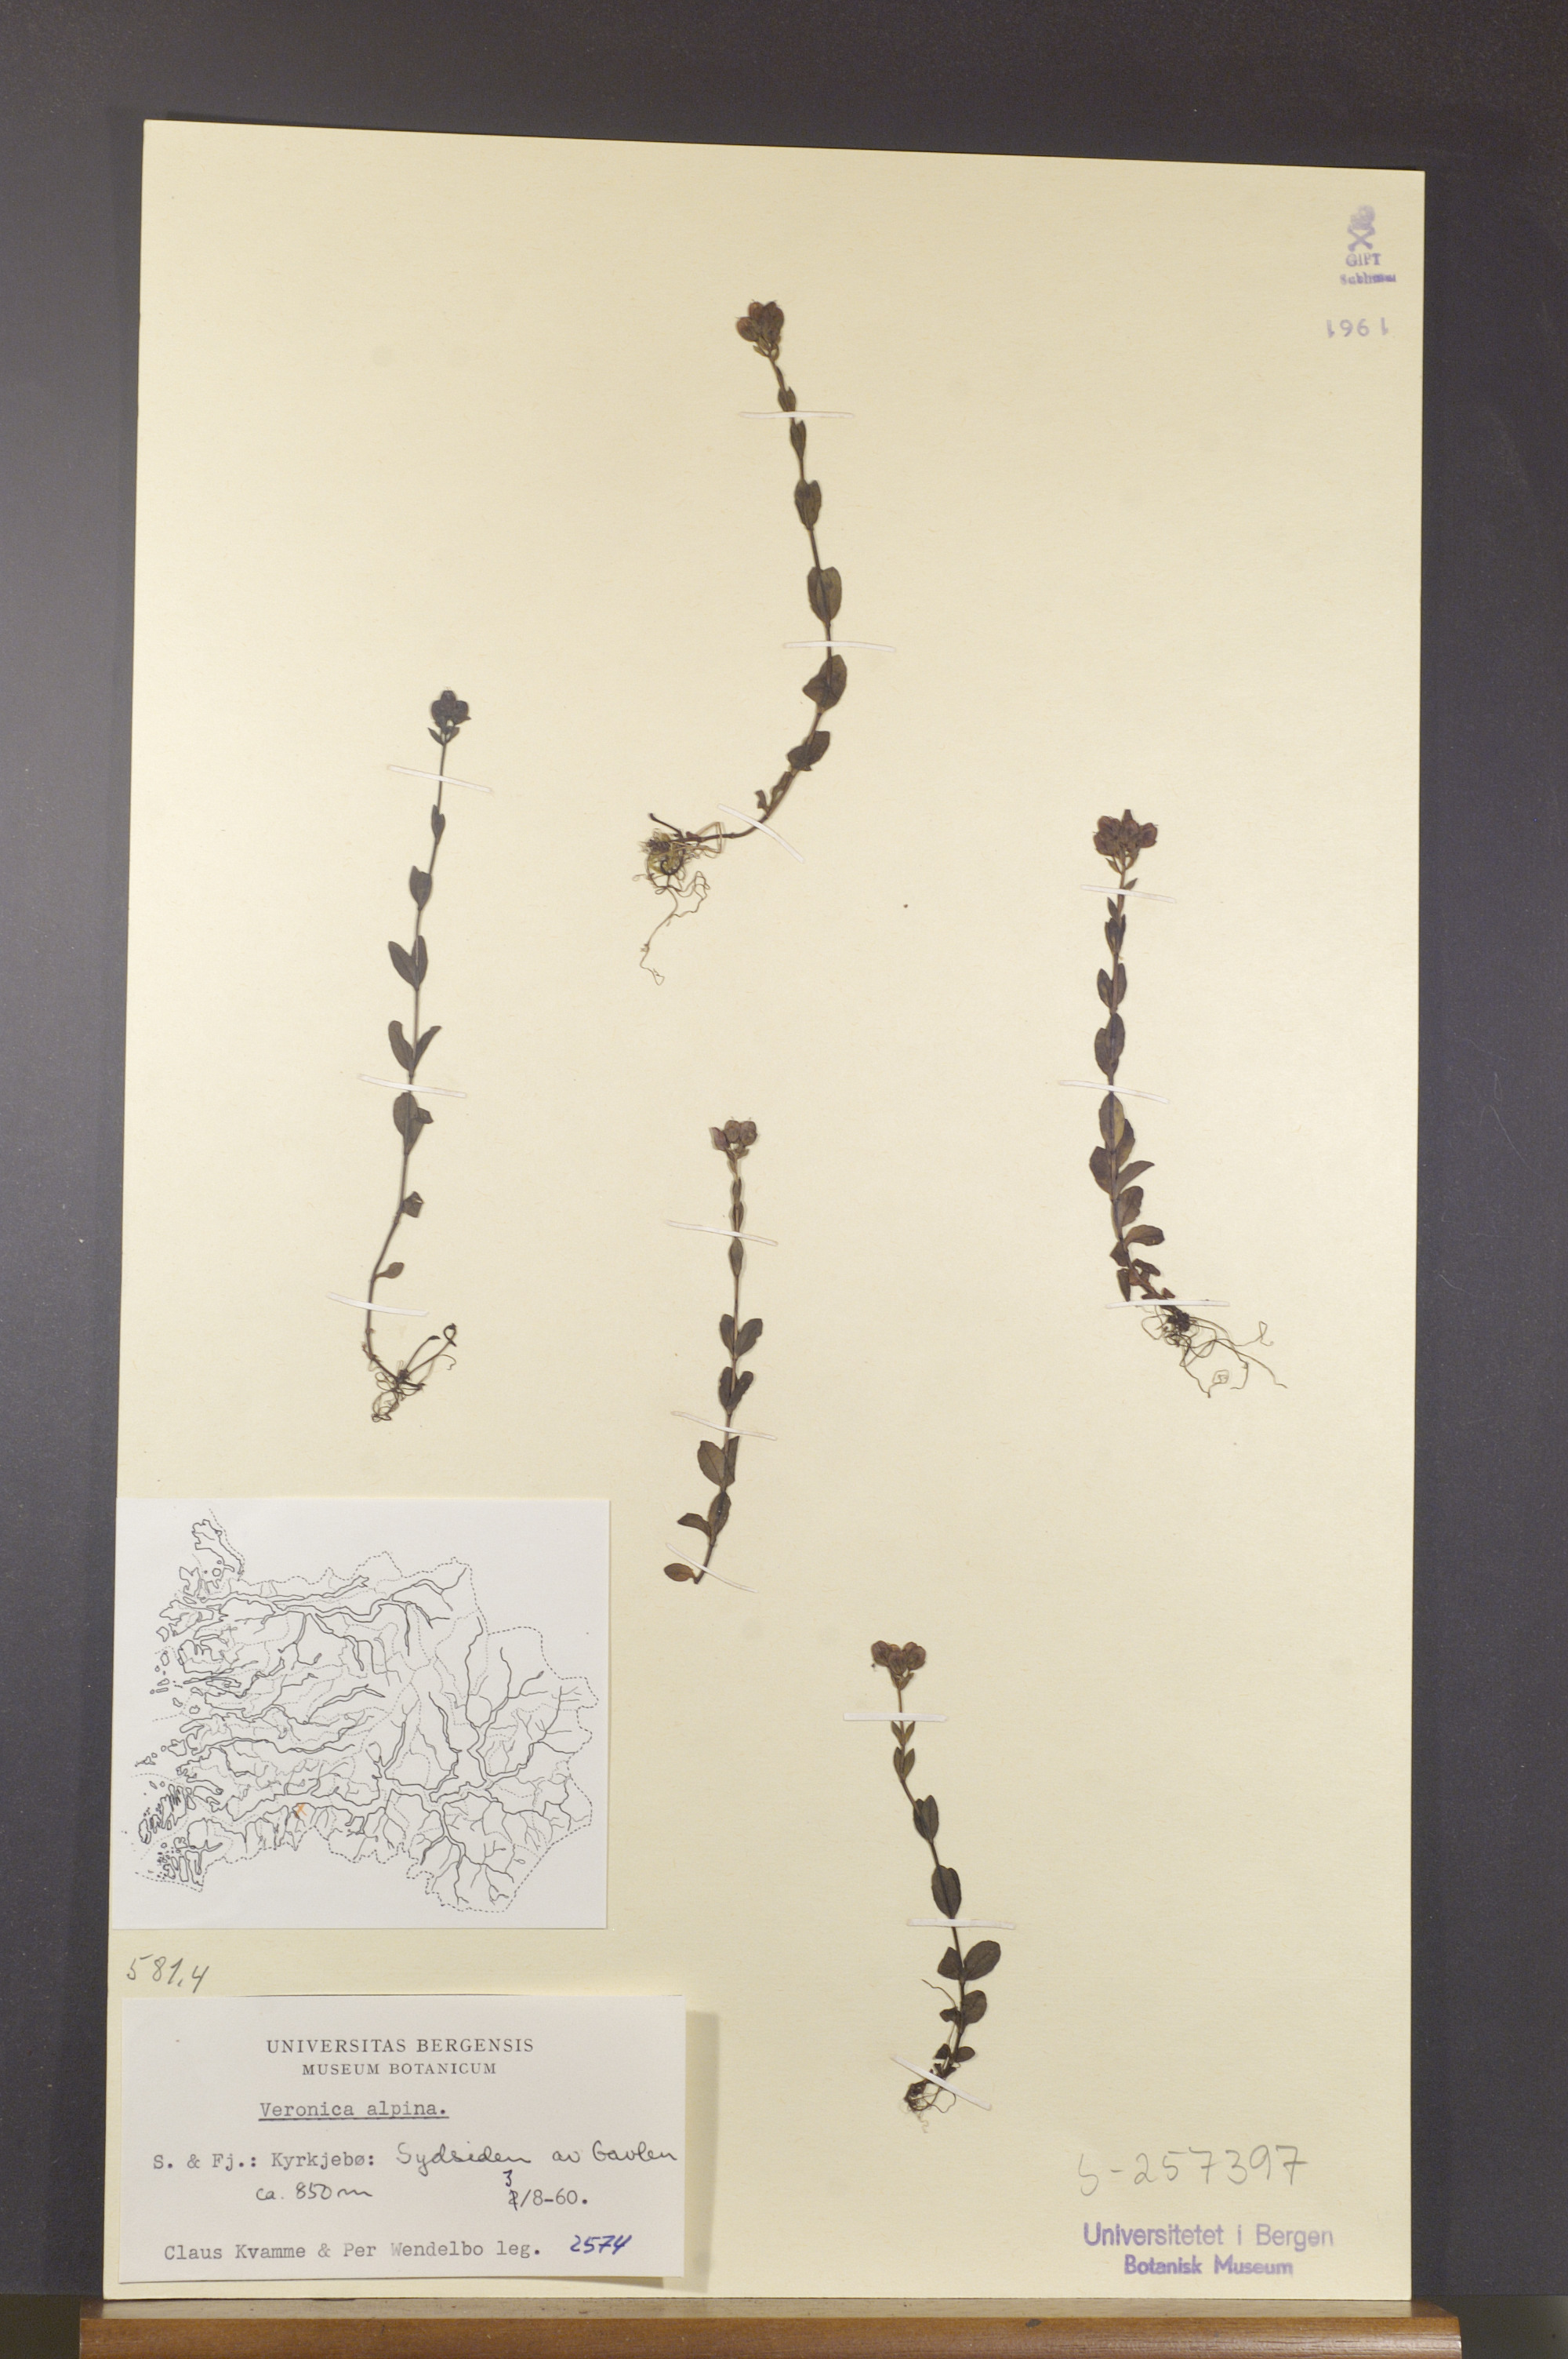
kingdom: Plantae
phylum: Tracheophyta
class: Magnoliopsida
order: Lamiales
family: Plantaginaceae
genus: Veronica
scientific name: Veronica alpina
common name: Alpine speedwell
